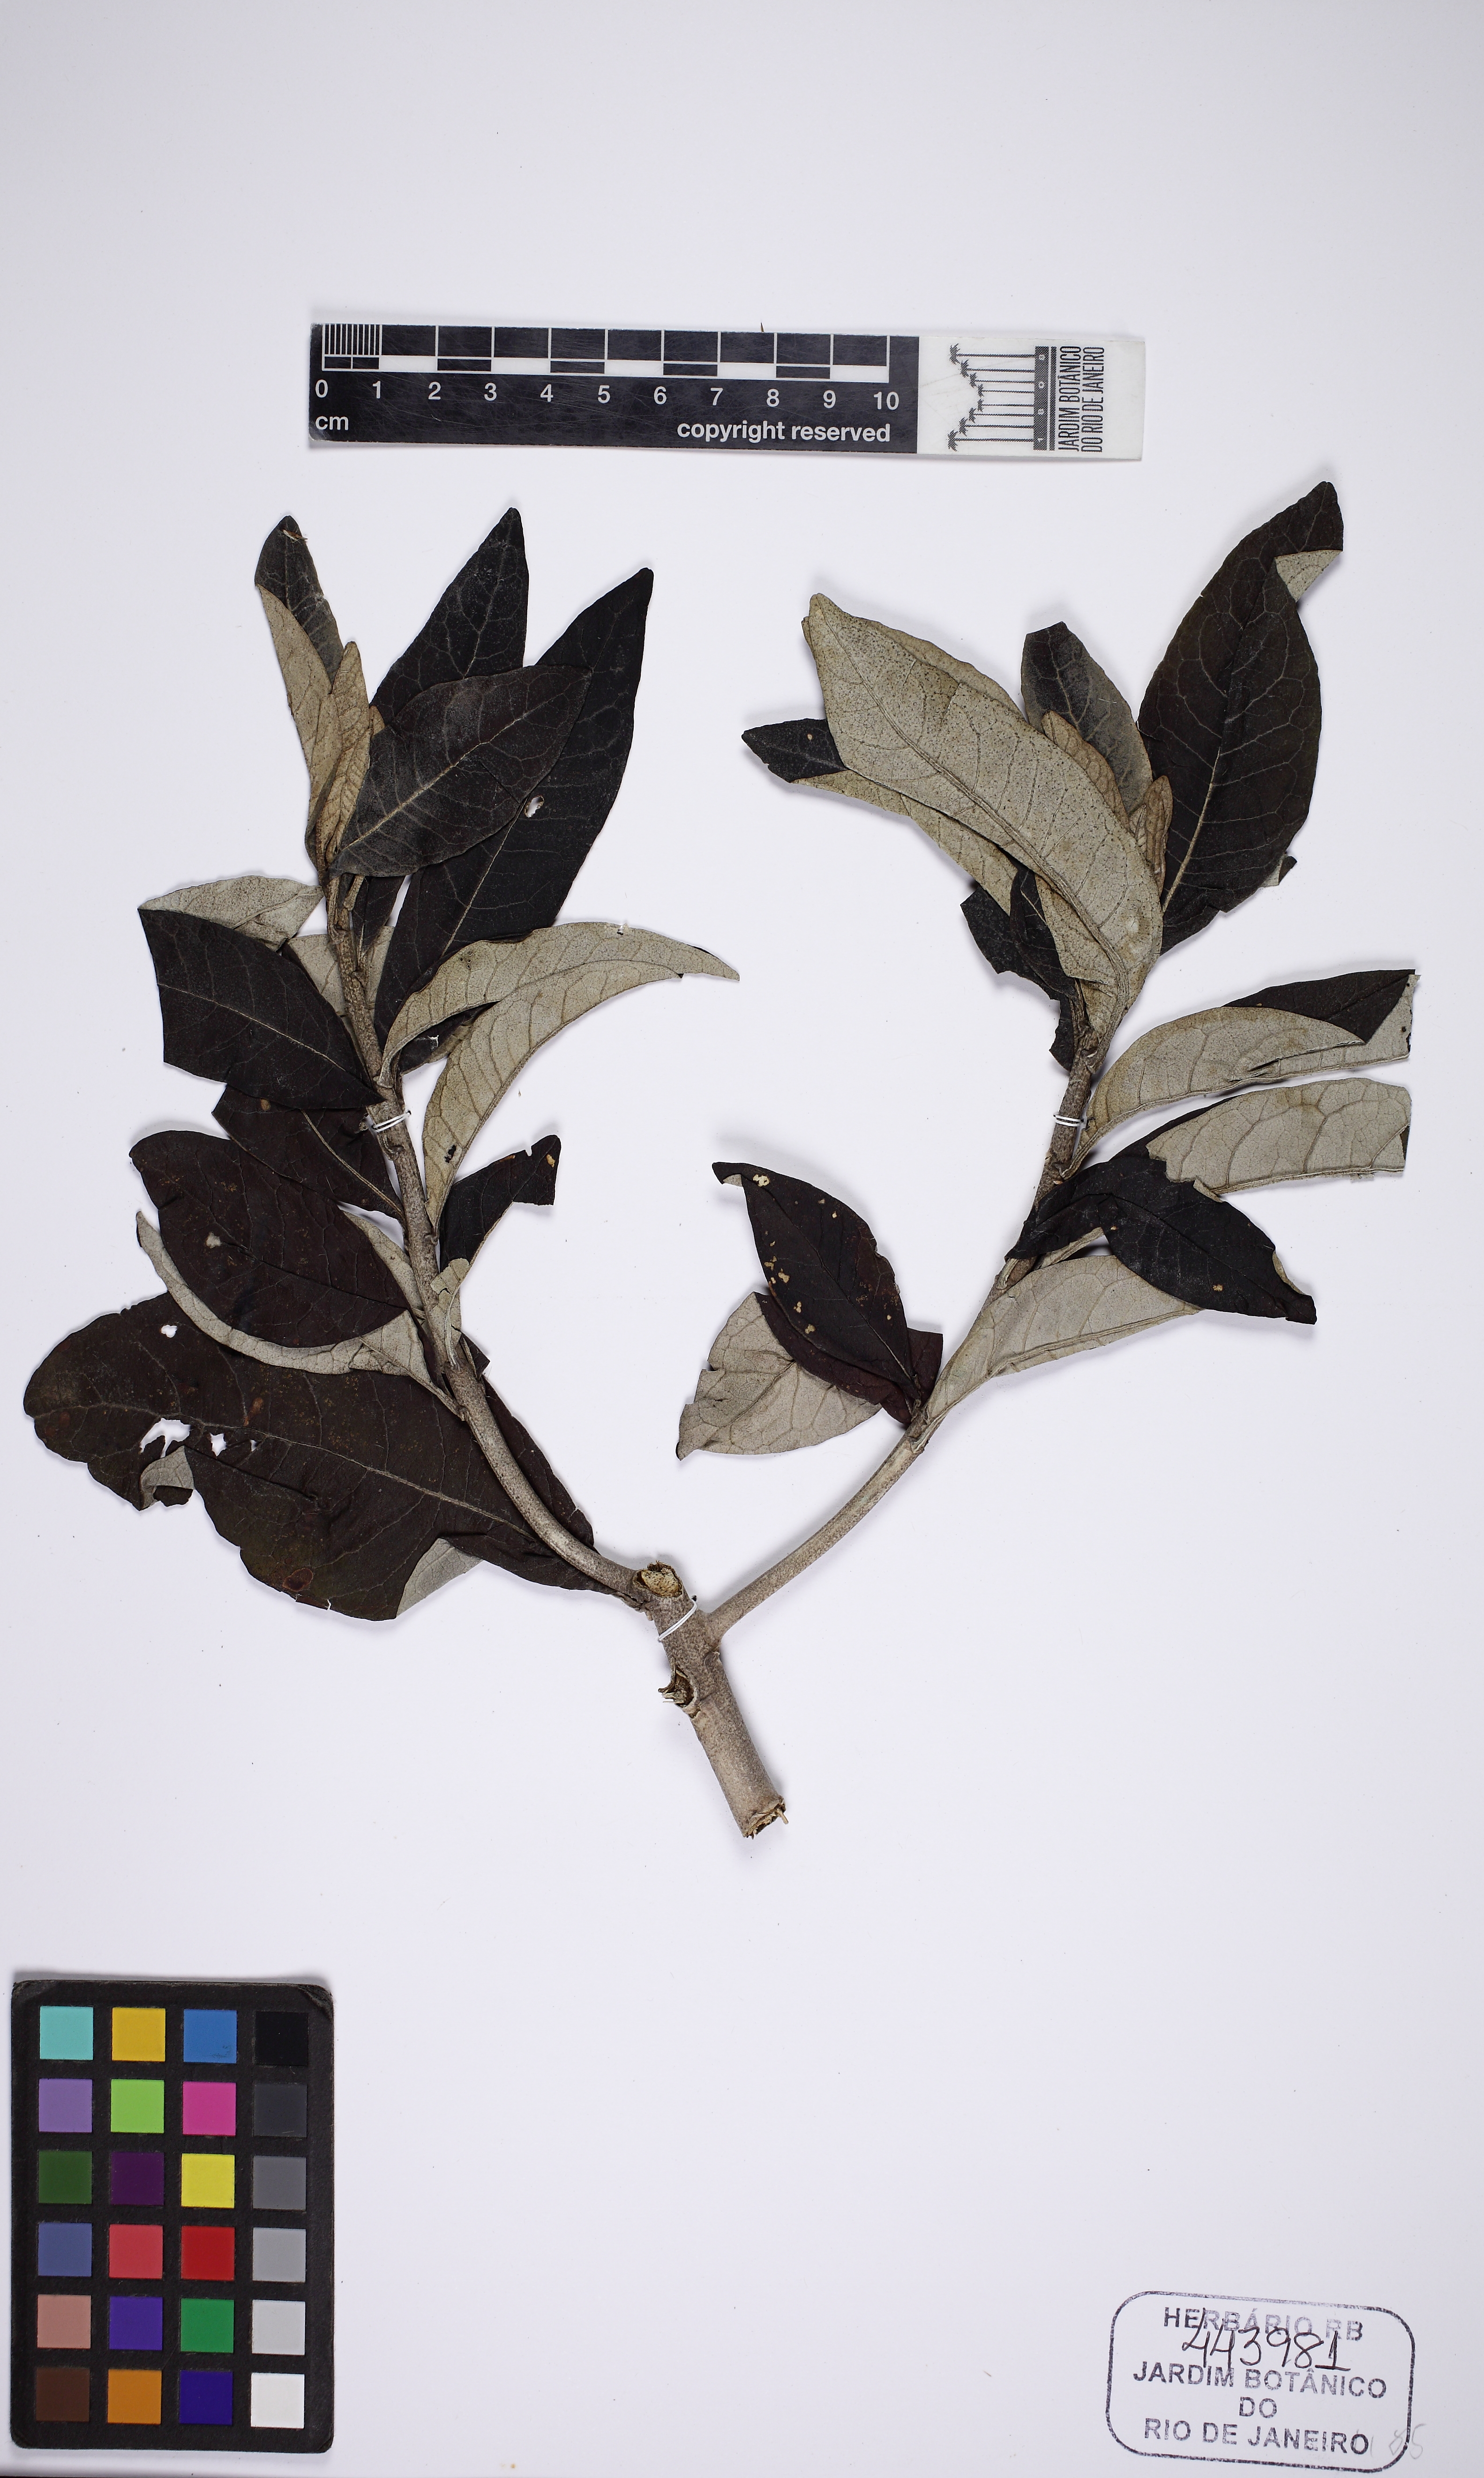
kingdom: Plantae
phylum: Tracheophyta
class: Magnoliopsida
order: Asterales
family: Asteraceae
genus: Eremanthus
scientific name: Eremanthus incanus
